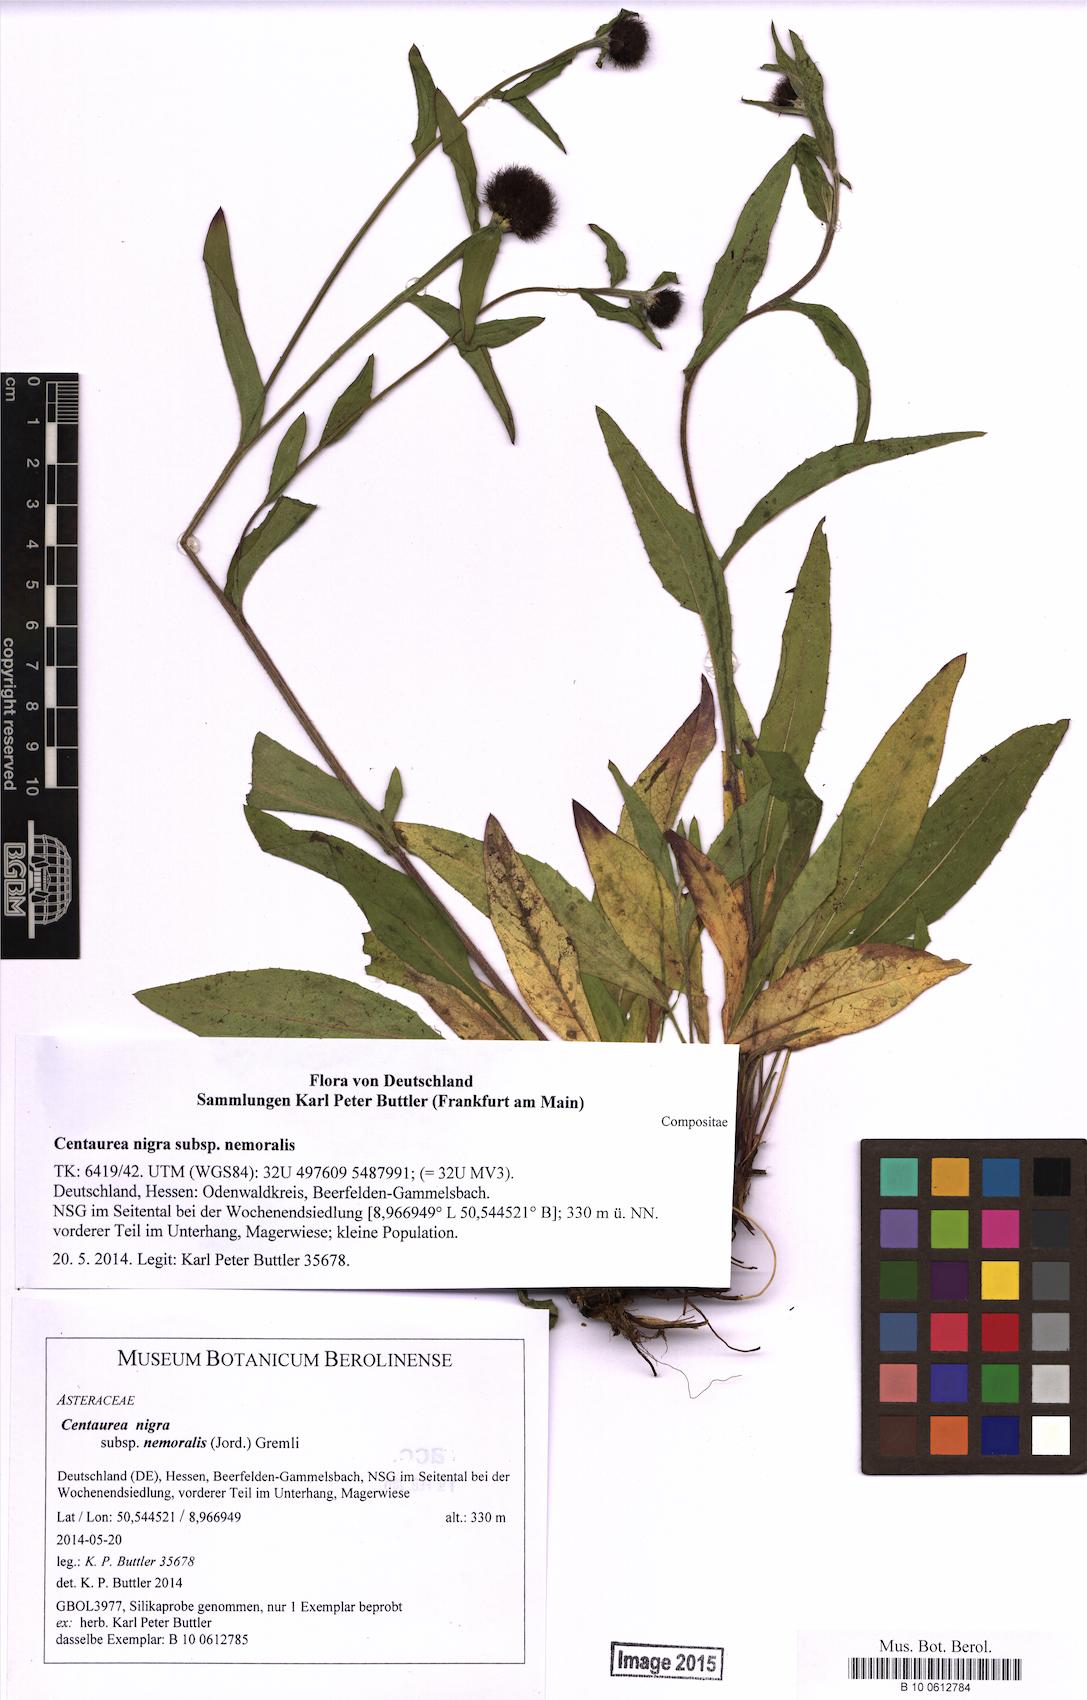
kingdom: Plantae
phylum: Tracheophyta
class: Magnoliopsida
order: Asterales
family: Asteraceae
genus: Centaurea
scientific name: Centaurea nigra
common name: Lesser knapweed
